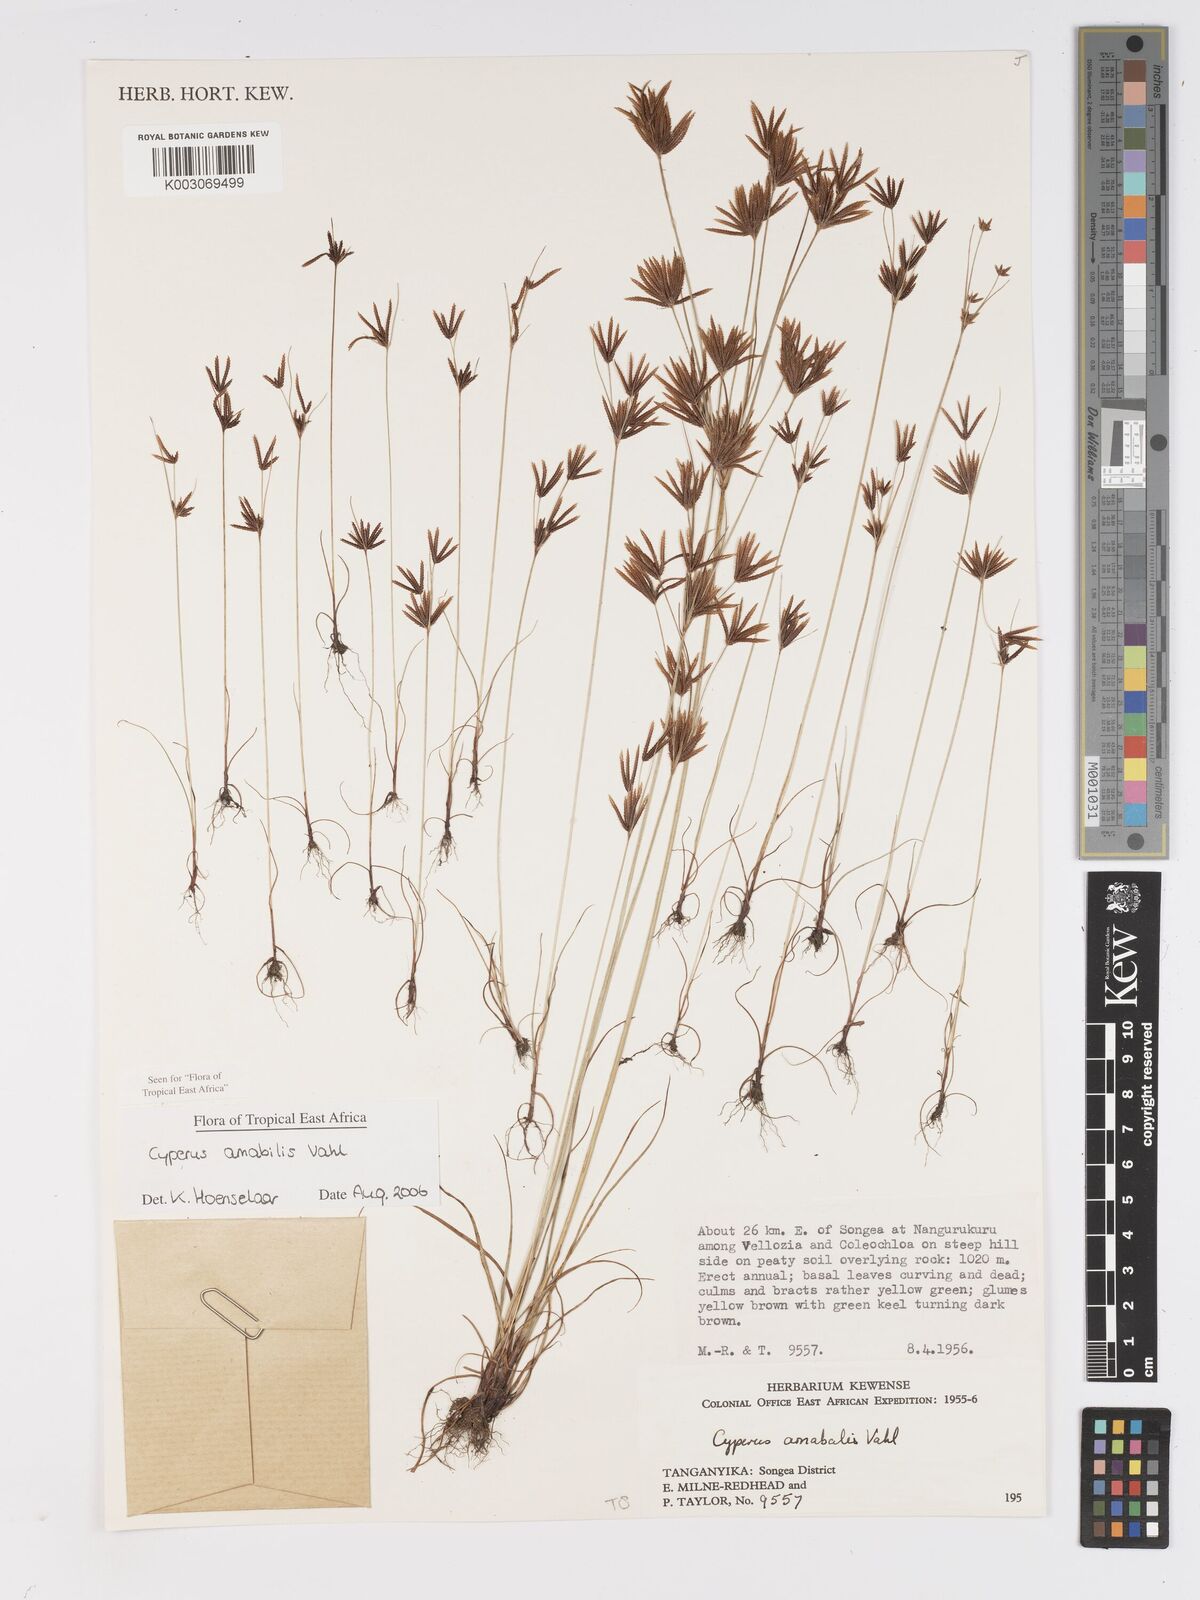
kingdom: Plantae
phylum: Tracheophyta
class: Liliopsida
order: Poales
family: Cyperaceae
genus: Cyperus
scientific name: Cyperus amabilis
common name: Foothill flat sedge
